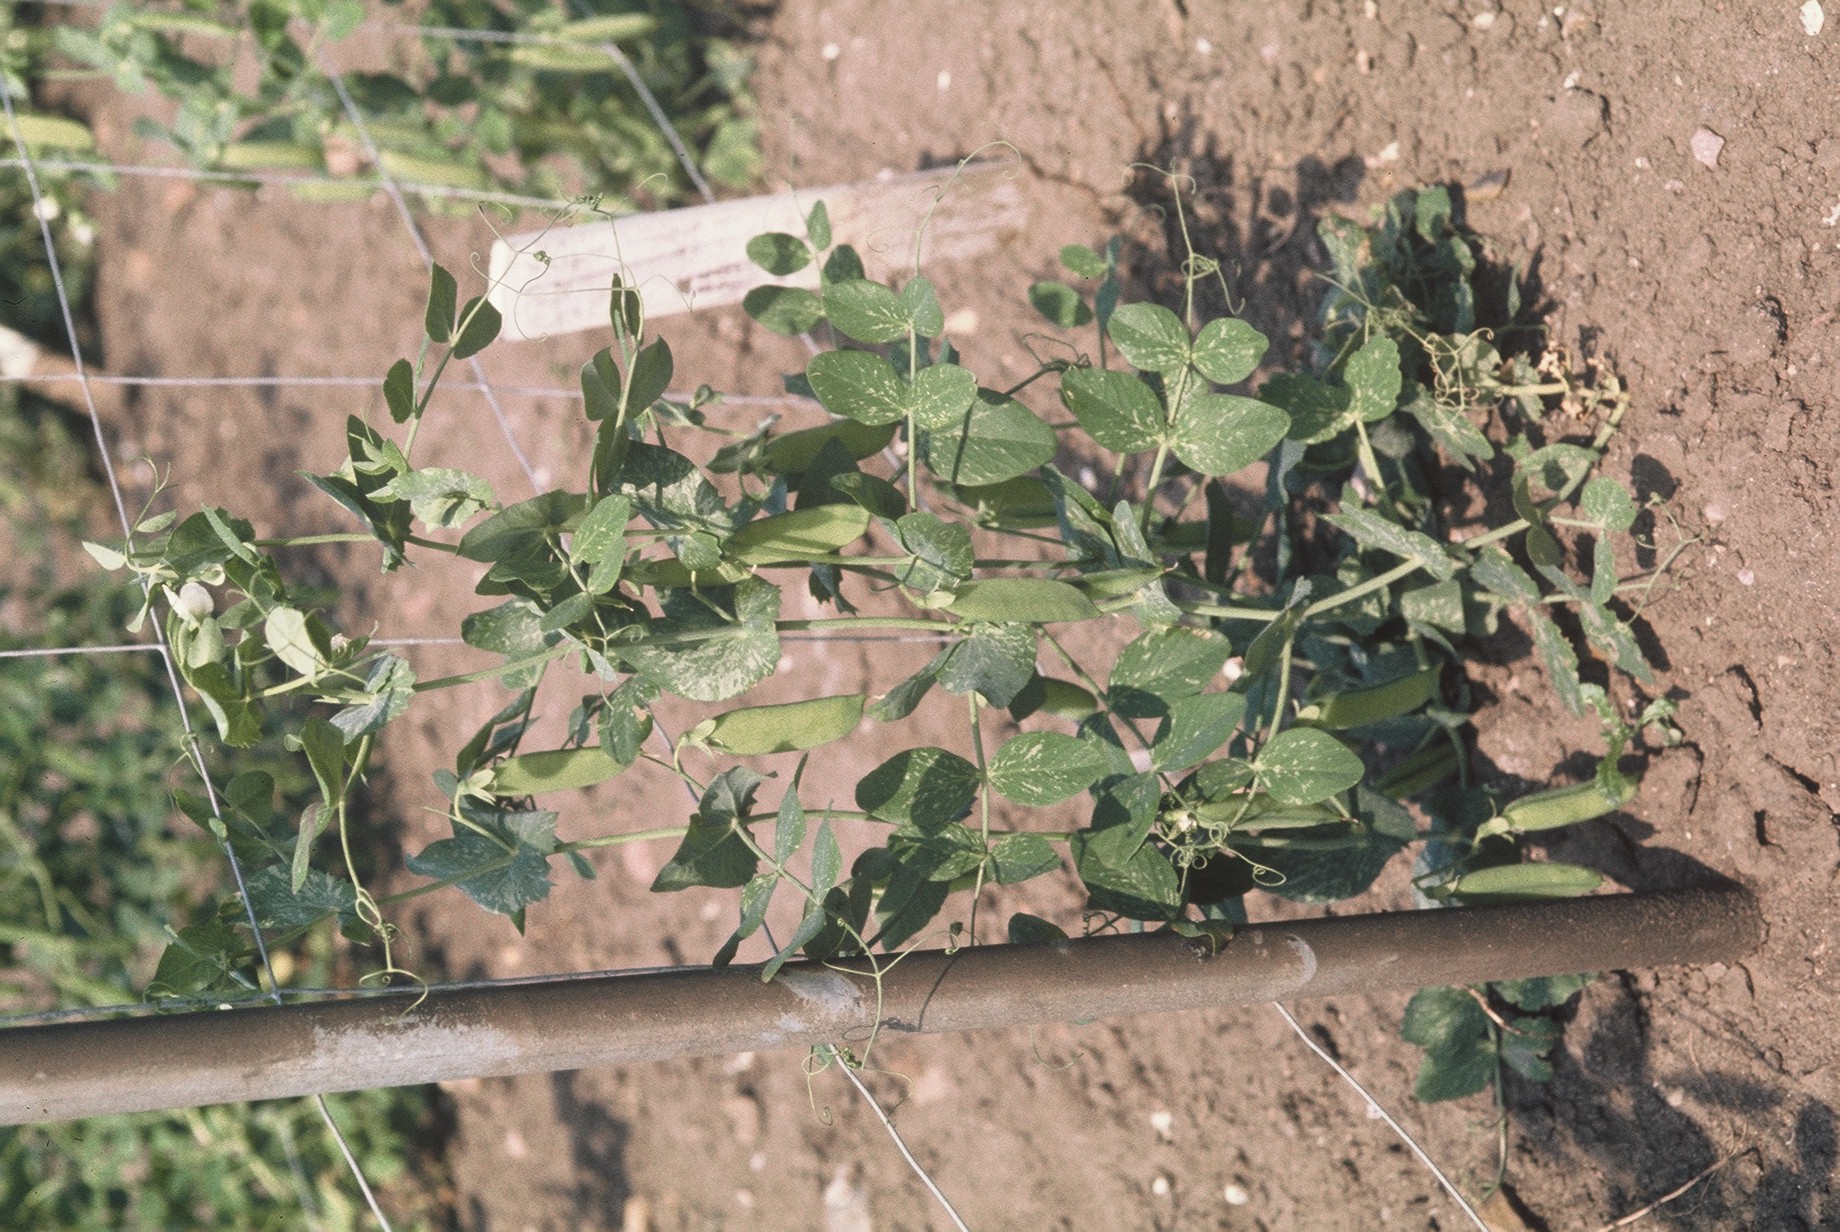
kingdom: Plantae
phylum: Tracheophyta
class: Magnoliopsida
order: Fabales
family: Fabaceae
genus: Lathyrus
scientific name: Lathyrus oleraceus
